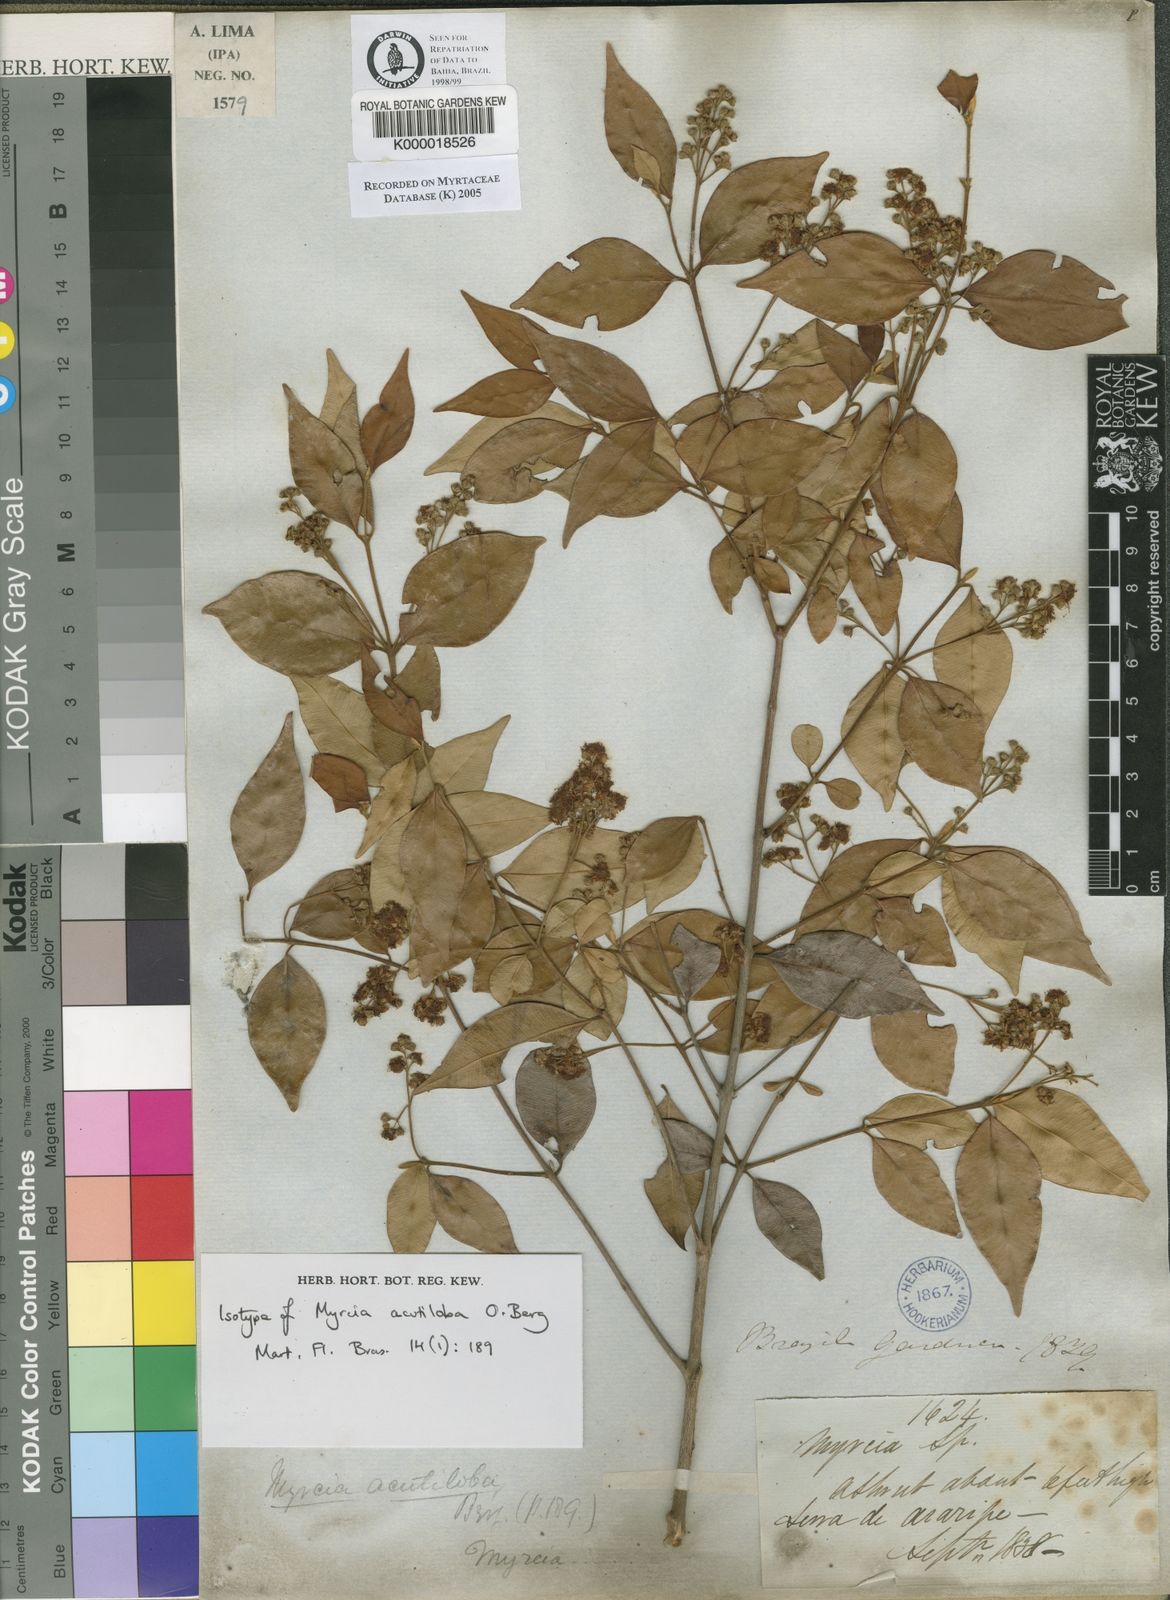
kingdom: Plantae
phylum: Tracheophyta
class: Magnoliopsida
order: Myrtales
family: Myrtaceae
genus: Myrcia
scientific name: Myrcia splendens
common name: Surinam cherry
